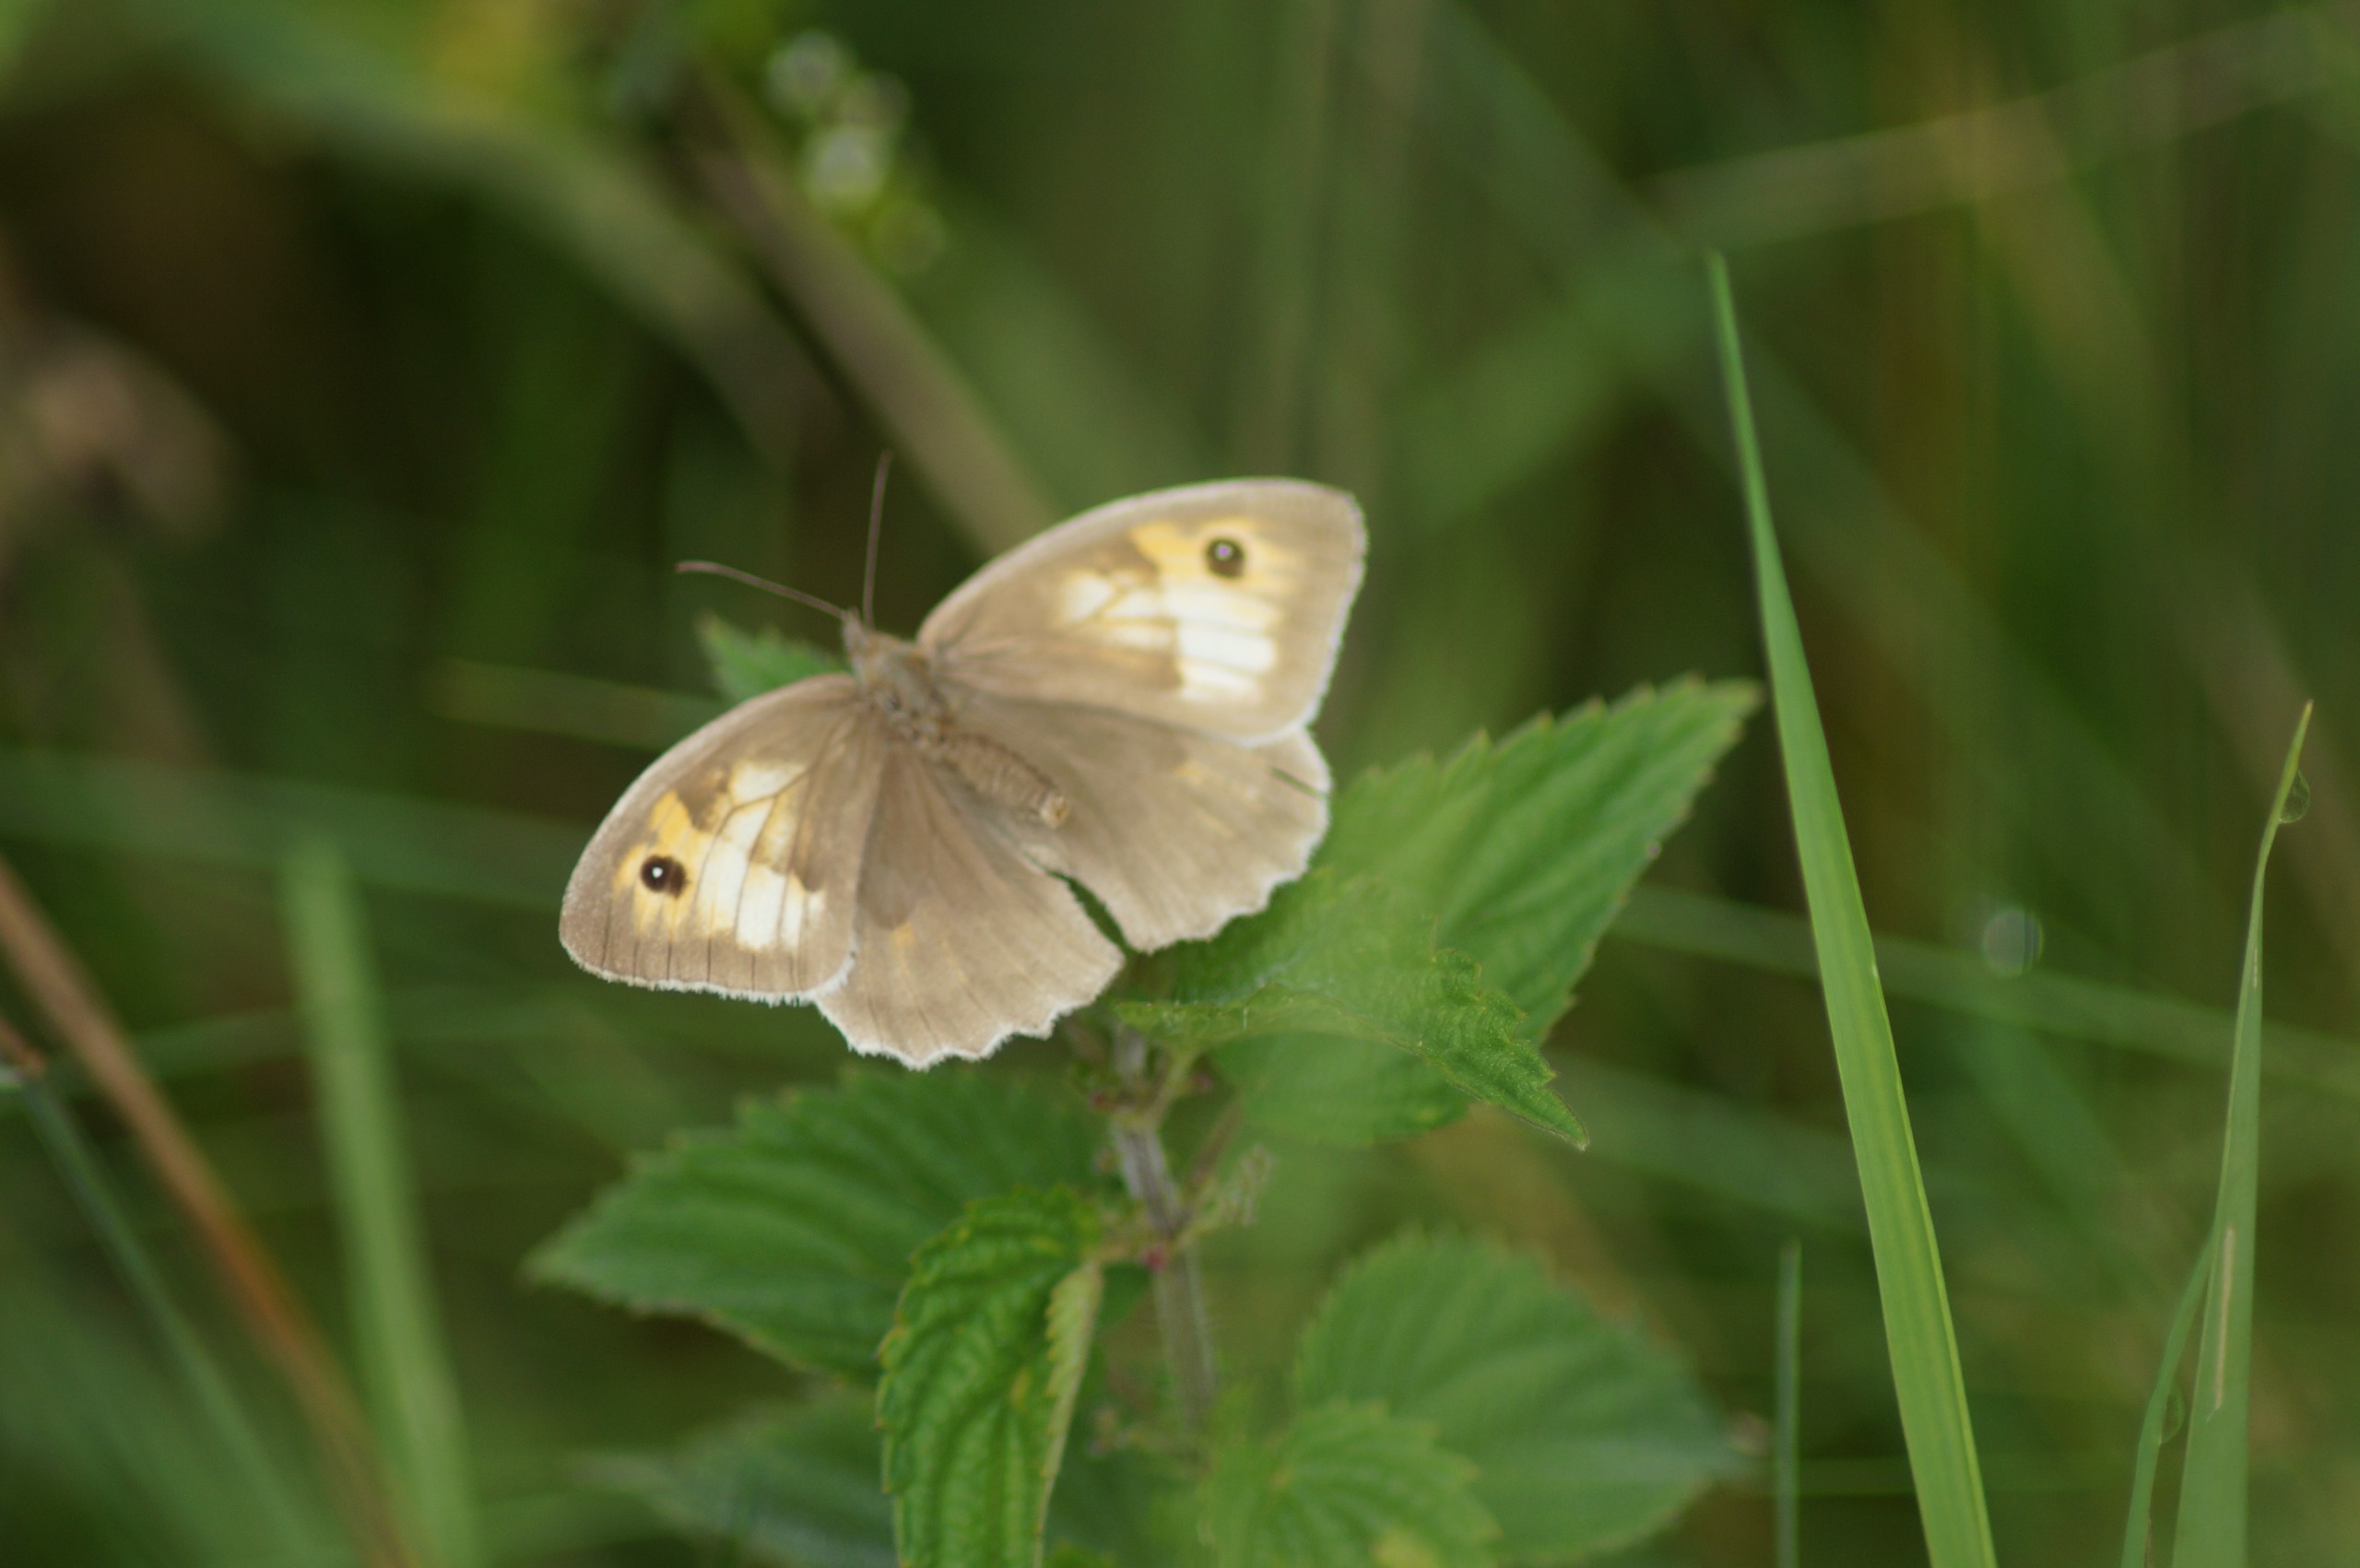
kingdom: Animalia
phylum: Arthropoda
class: Insecta
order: Lepidoptera
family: Nymphalidae
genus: Maniola
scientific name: Maniola jurtina
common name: Græsrandøje
